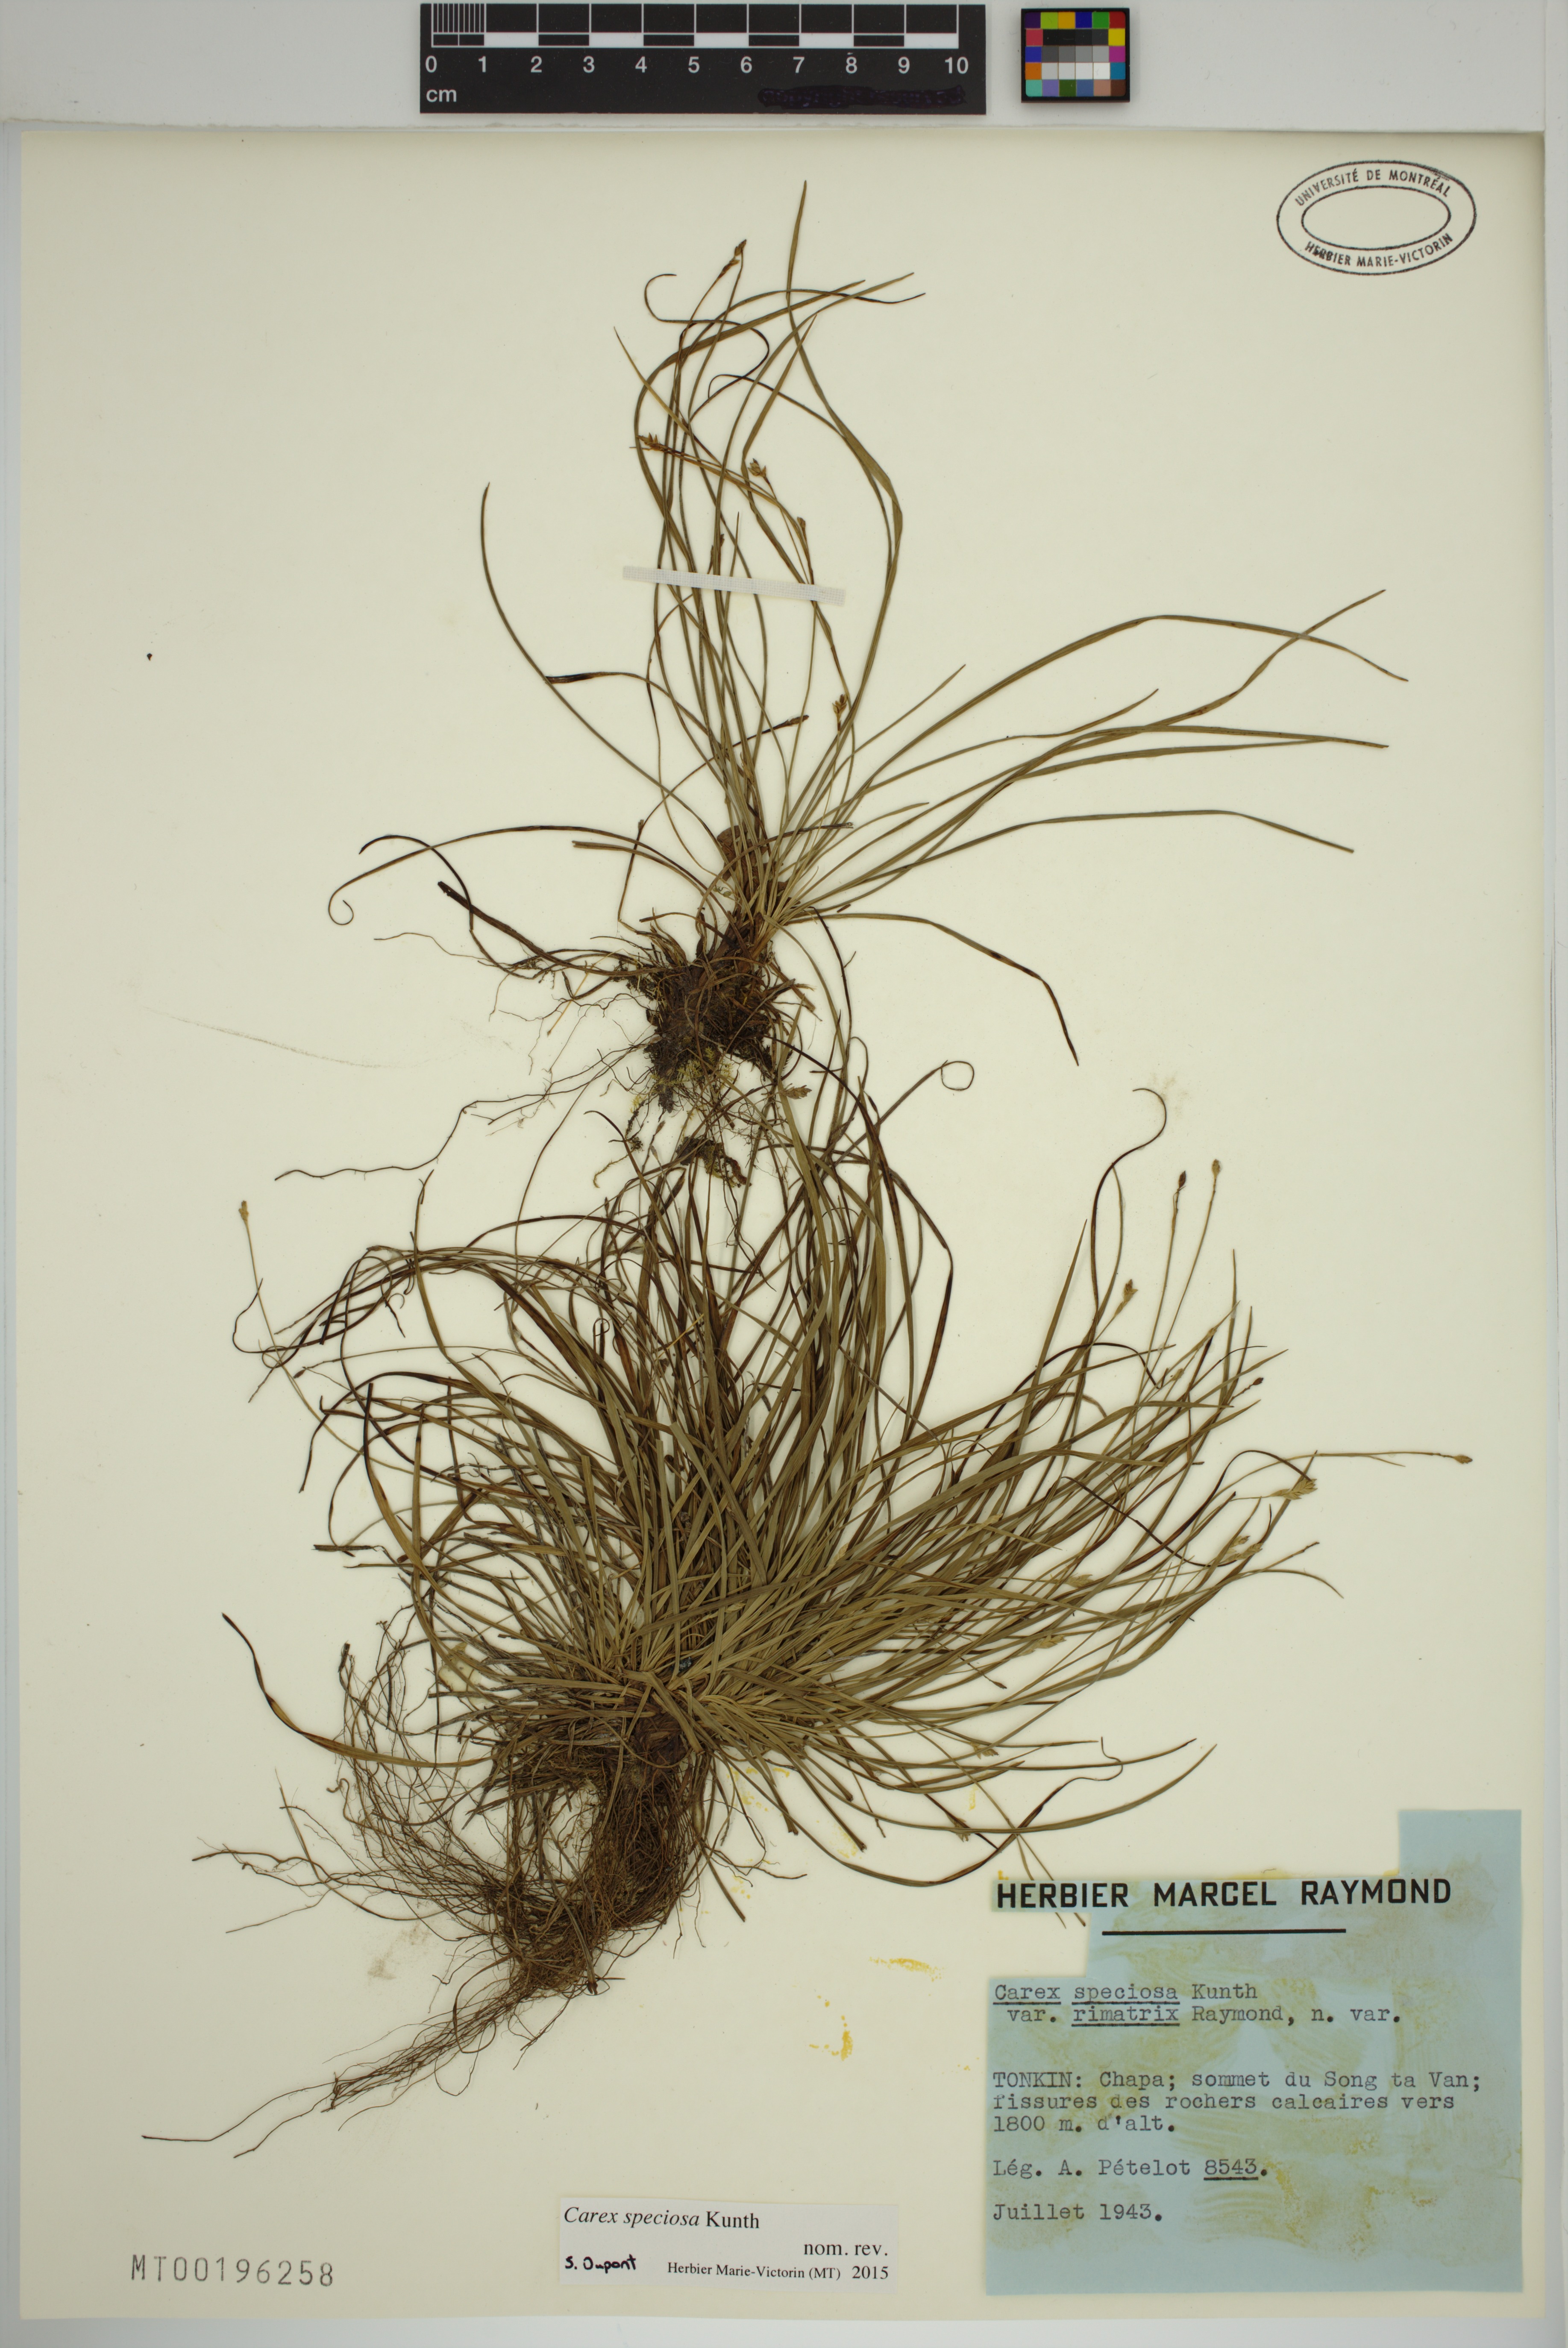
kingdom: Plantae
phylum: Tracheophyta
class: Liliopsida
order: Poales
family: Cyperaceae
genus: Carex
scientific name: Carex specifica
